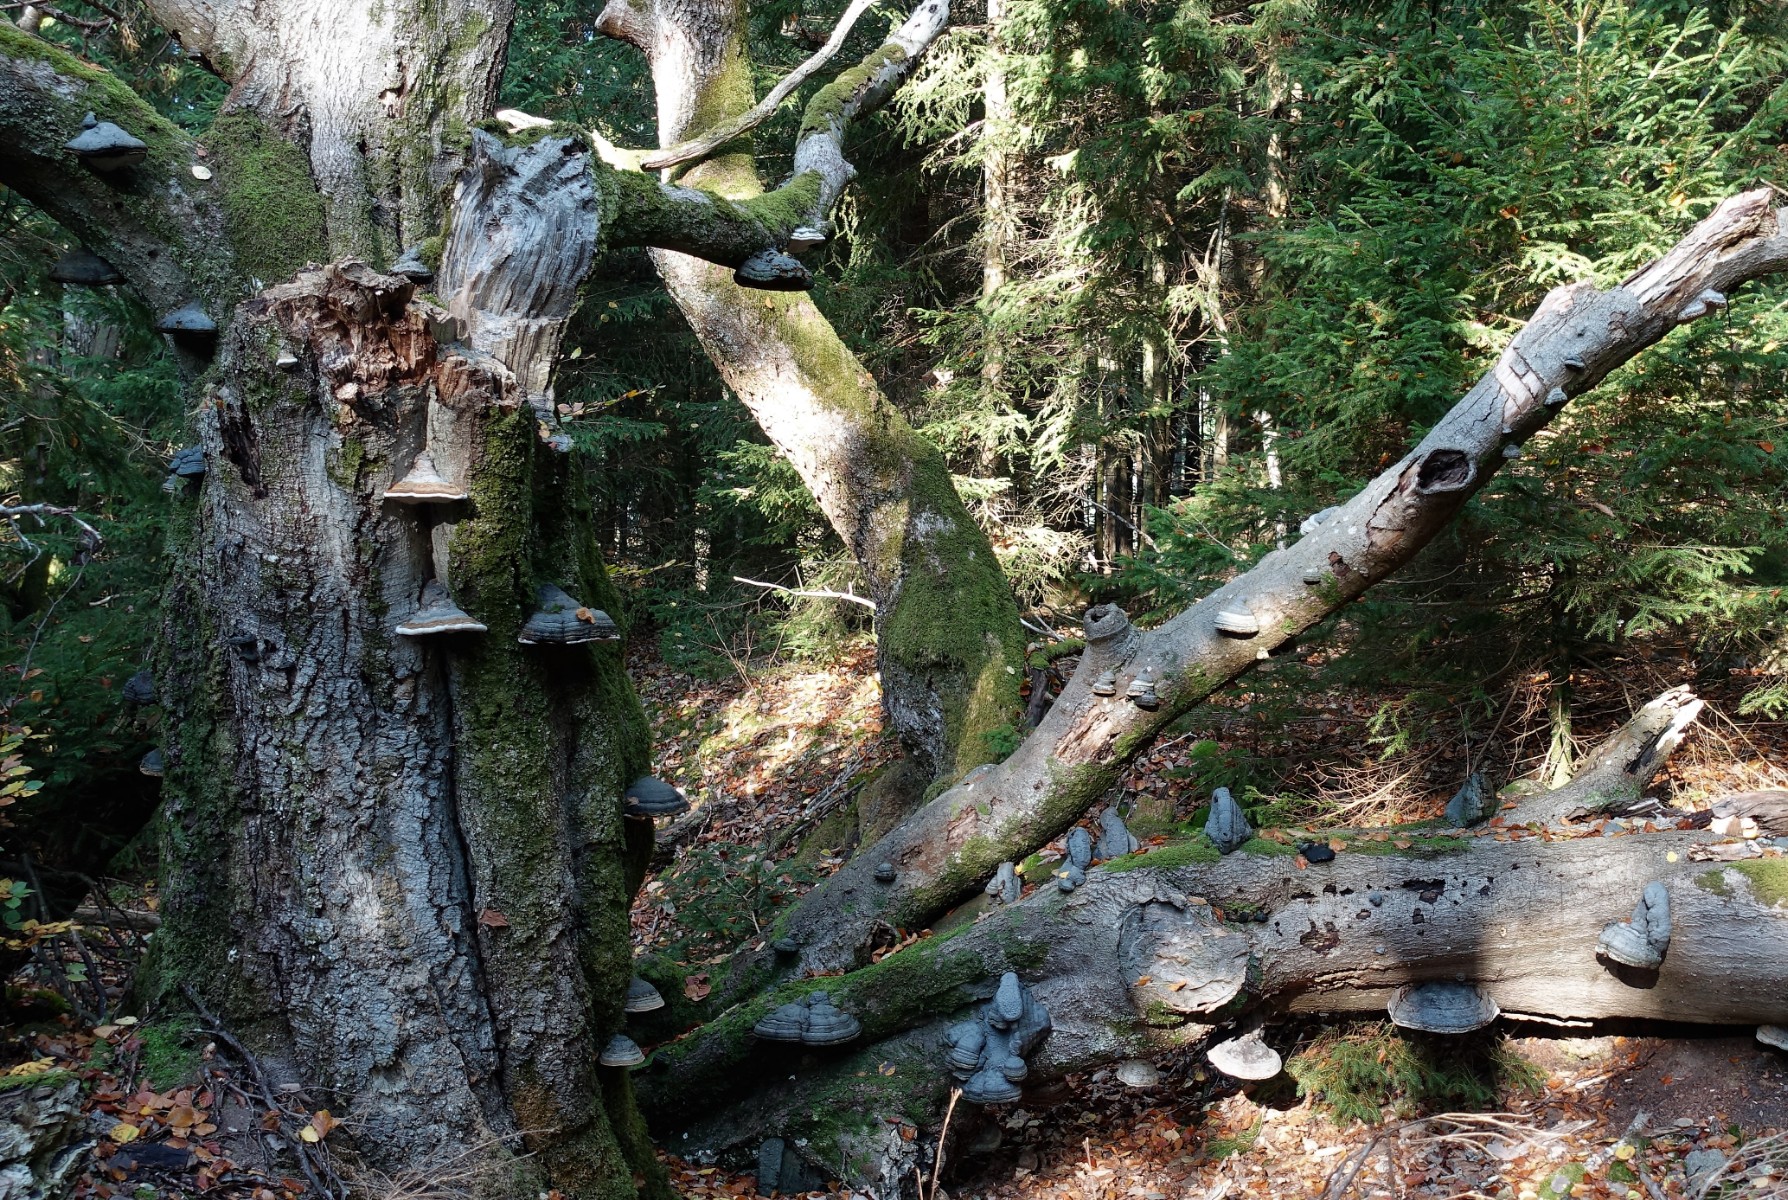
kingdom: Fungi
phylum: Basidiomycota
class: Agaricomycetes
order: Polyporales
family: Polyporaceae
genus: Fomes
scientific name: Fomes fomentarius
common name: tøndersvamp
